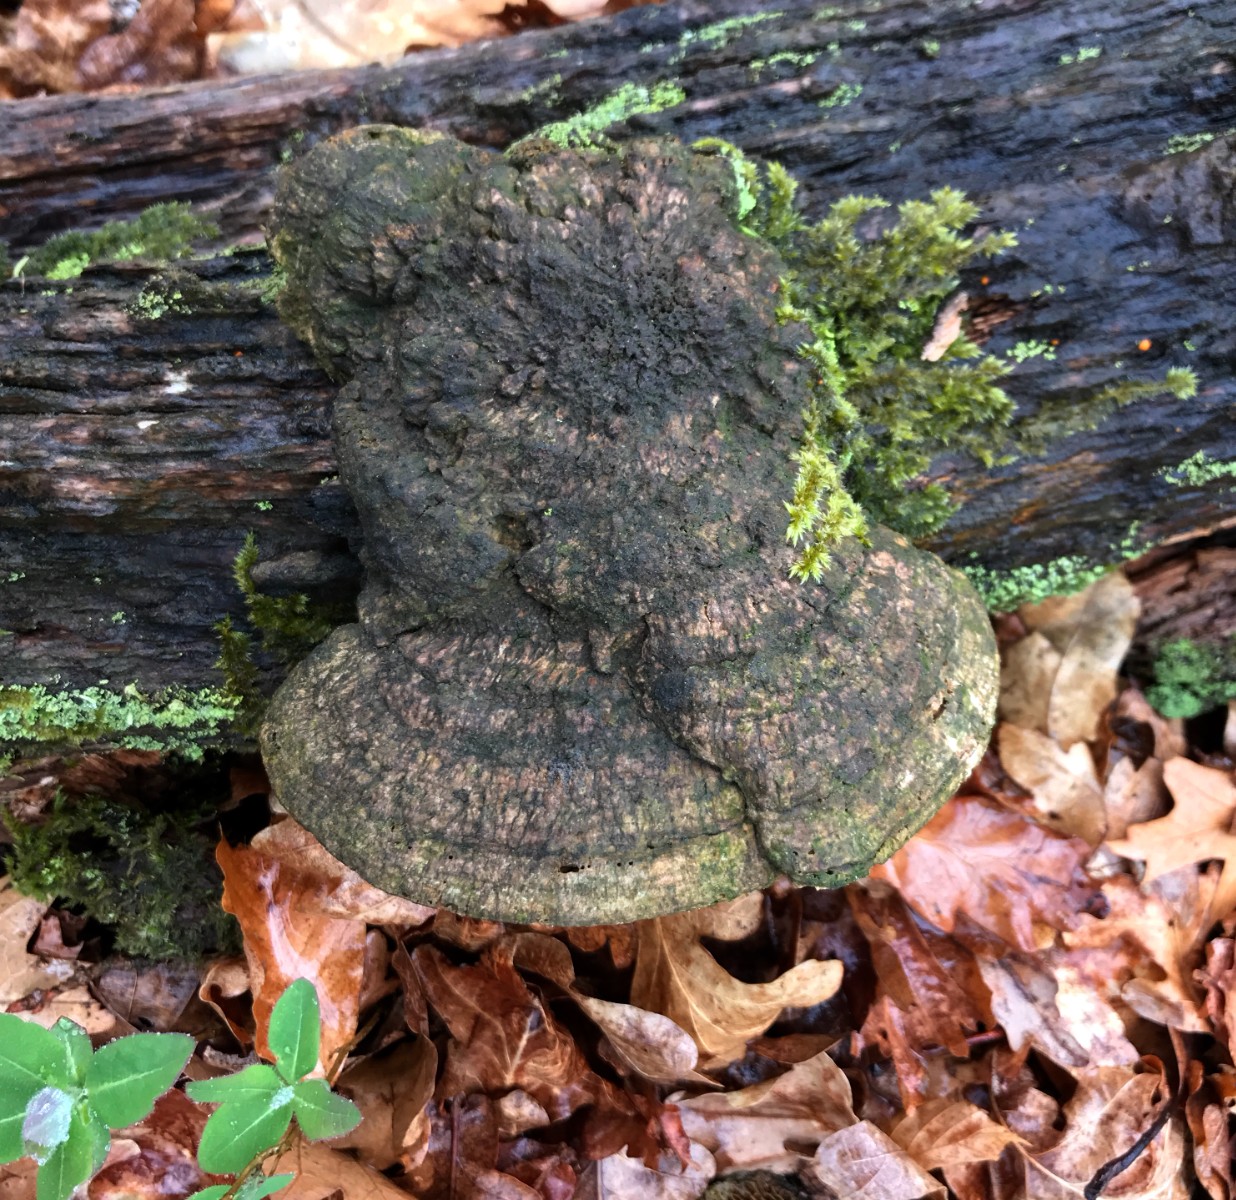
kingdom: Fungi
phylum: Basidiomycota
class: Agaricomycetes
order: Gloeophyllales
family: Gloeophyllaceae
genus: Gloeophyllum
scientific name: Gloeophyllum sepiarium
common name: fyrre-korkhat
